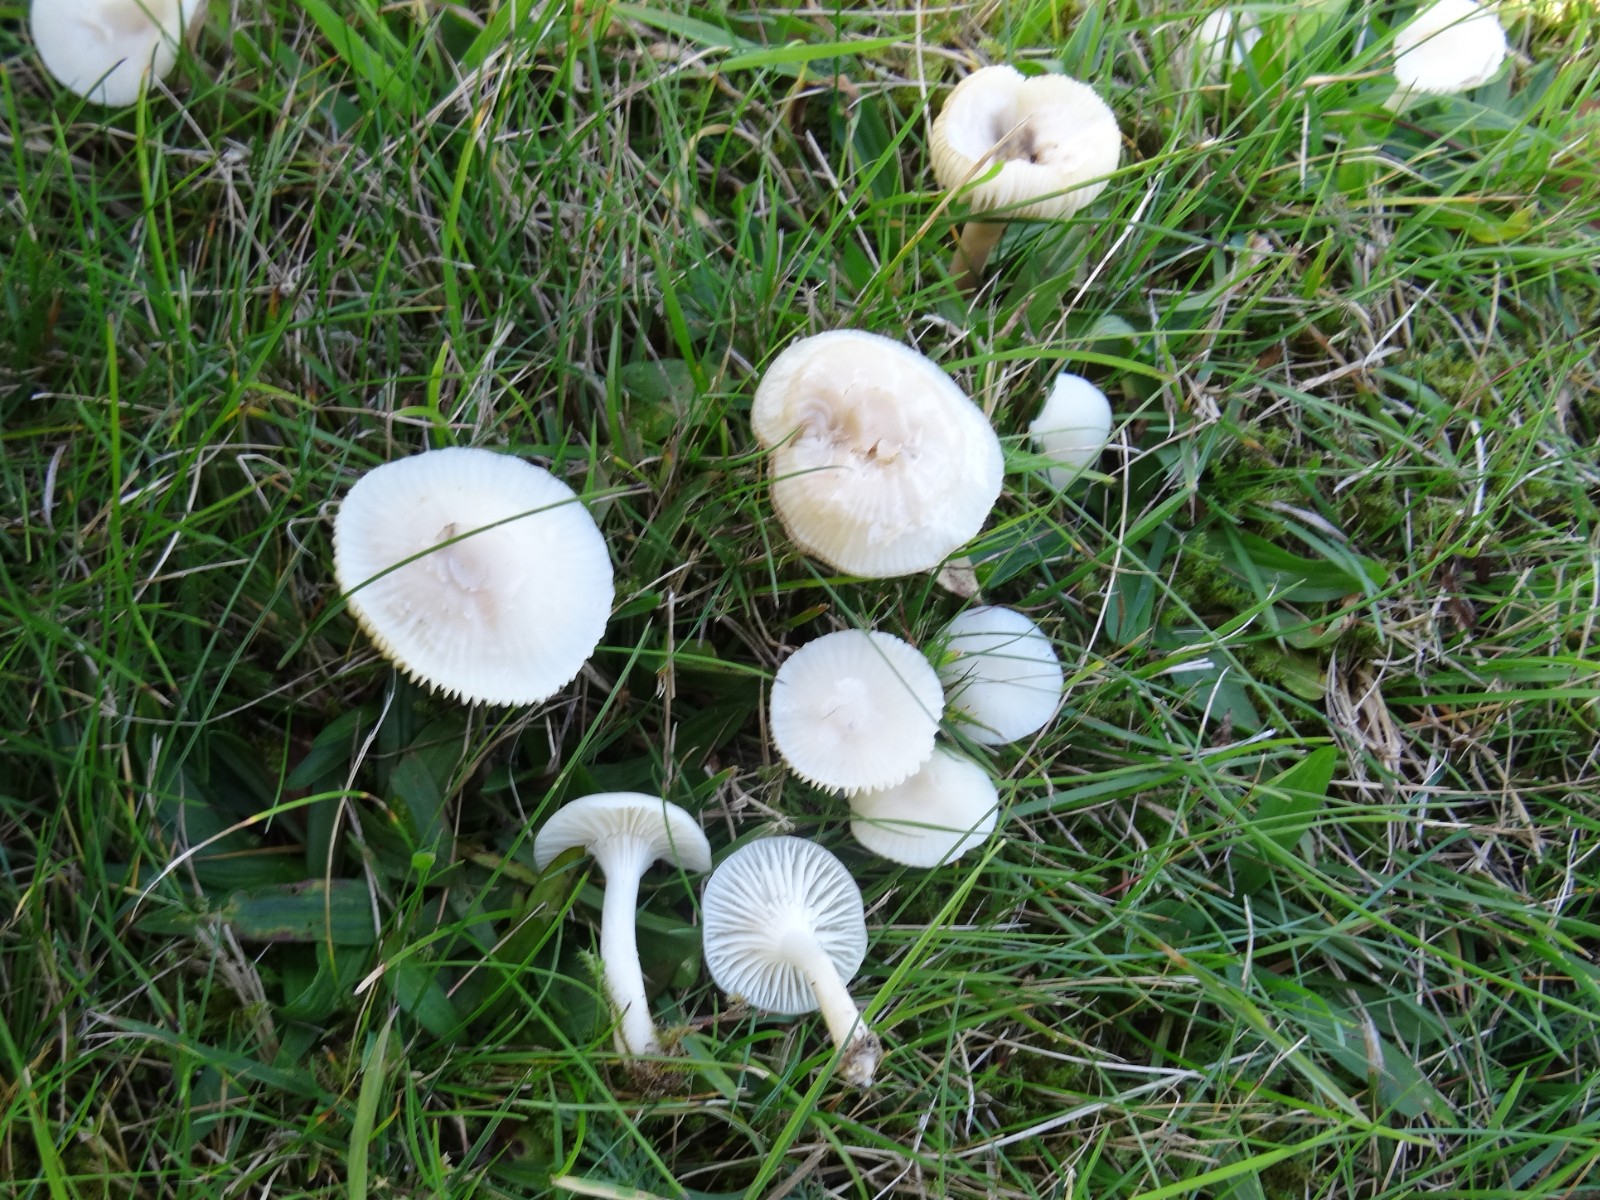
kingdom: Fungi
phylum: Basidiomycota
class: Agaricomycetes
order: Agaricales
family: Hygrophoraceae
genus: Cuphophyllus
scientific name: Cuphophyllus virgineus
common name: snehvid vokshat
